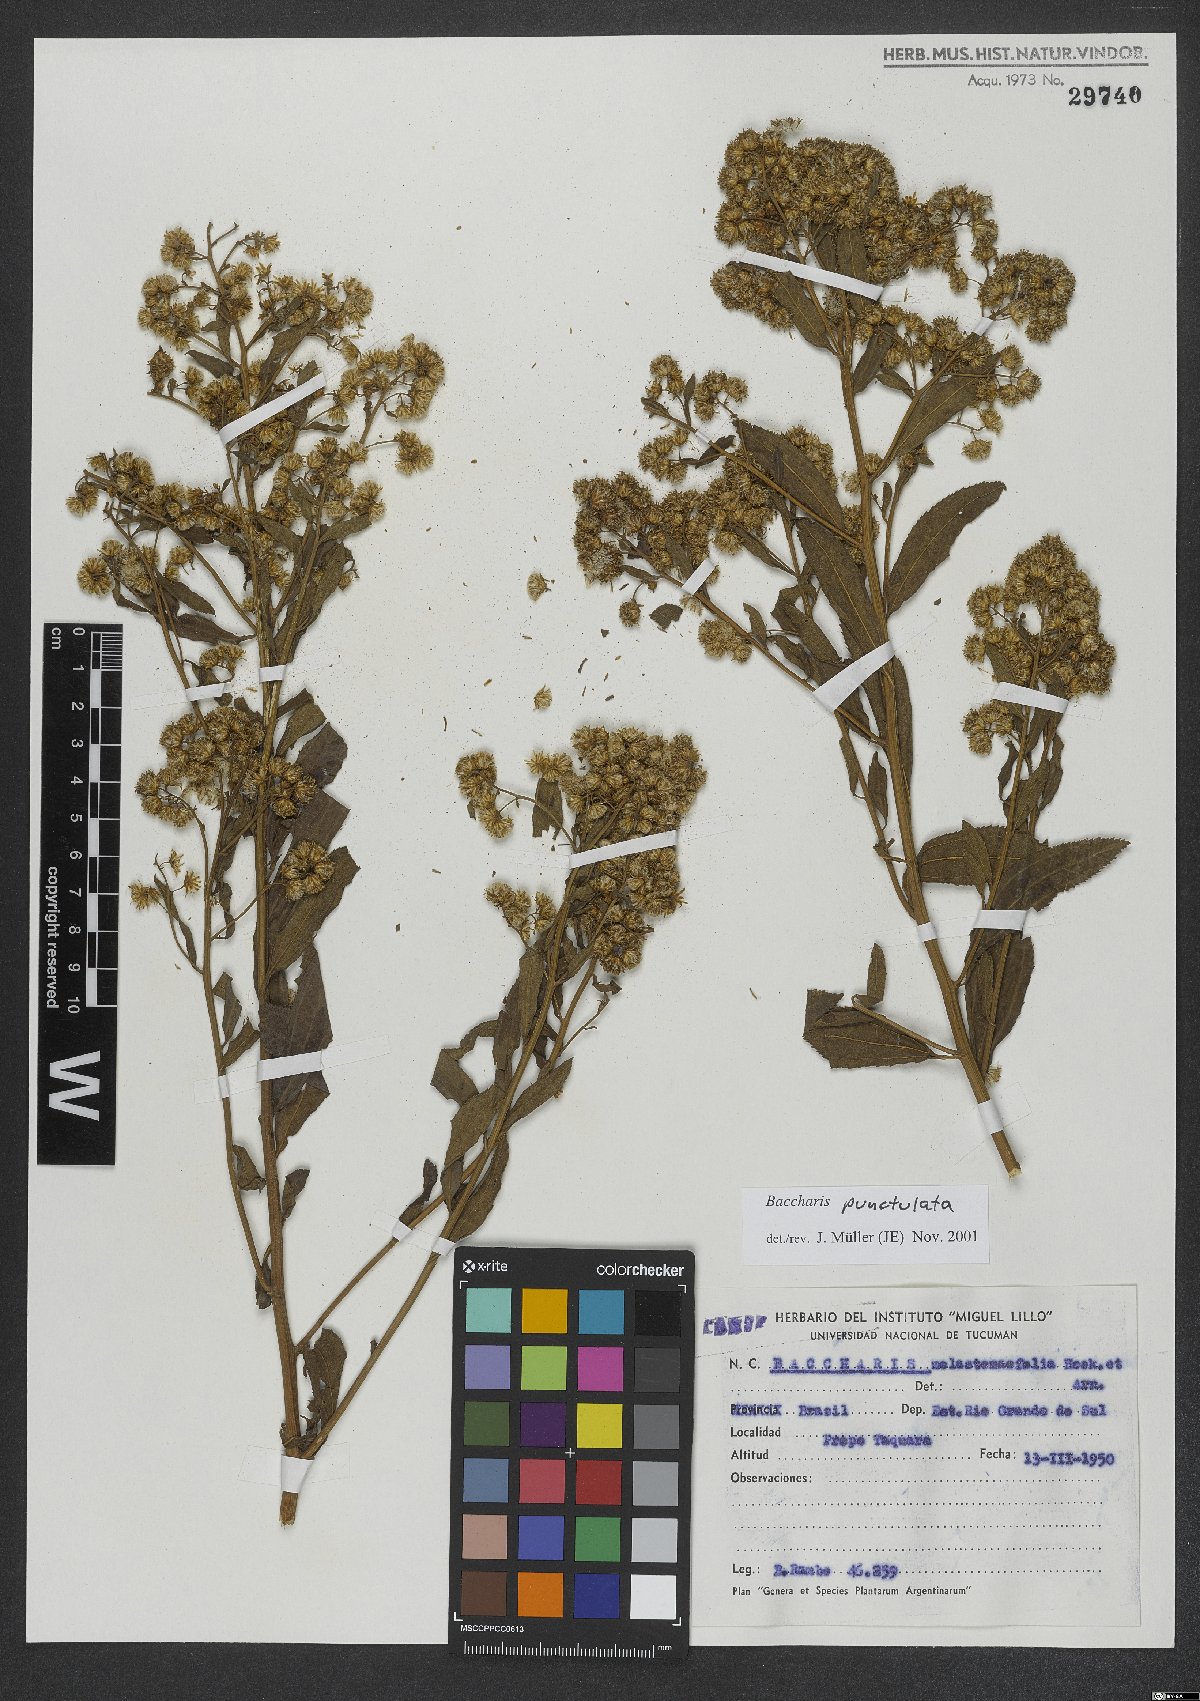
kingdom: Plantae
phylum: Tracheophyta
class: Magnoliopsida
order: Asterales
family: Asteraceae
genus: Baccharis
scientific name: Baccharis punctulata
